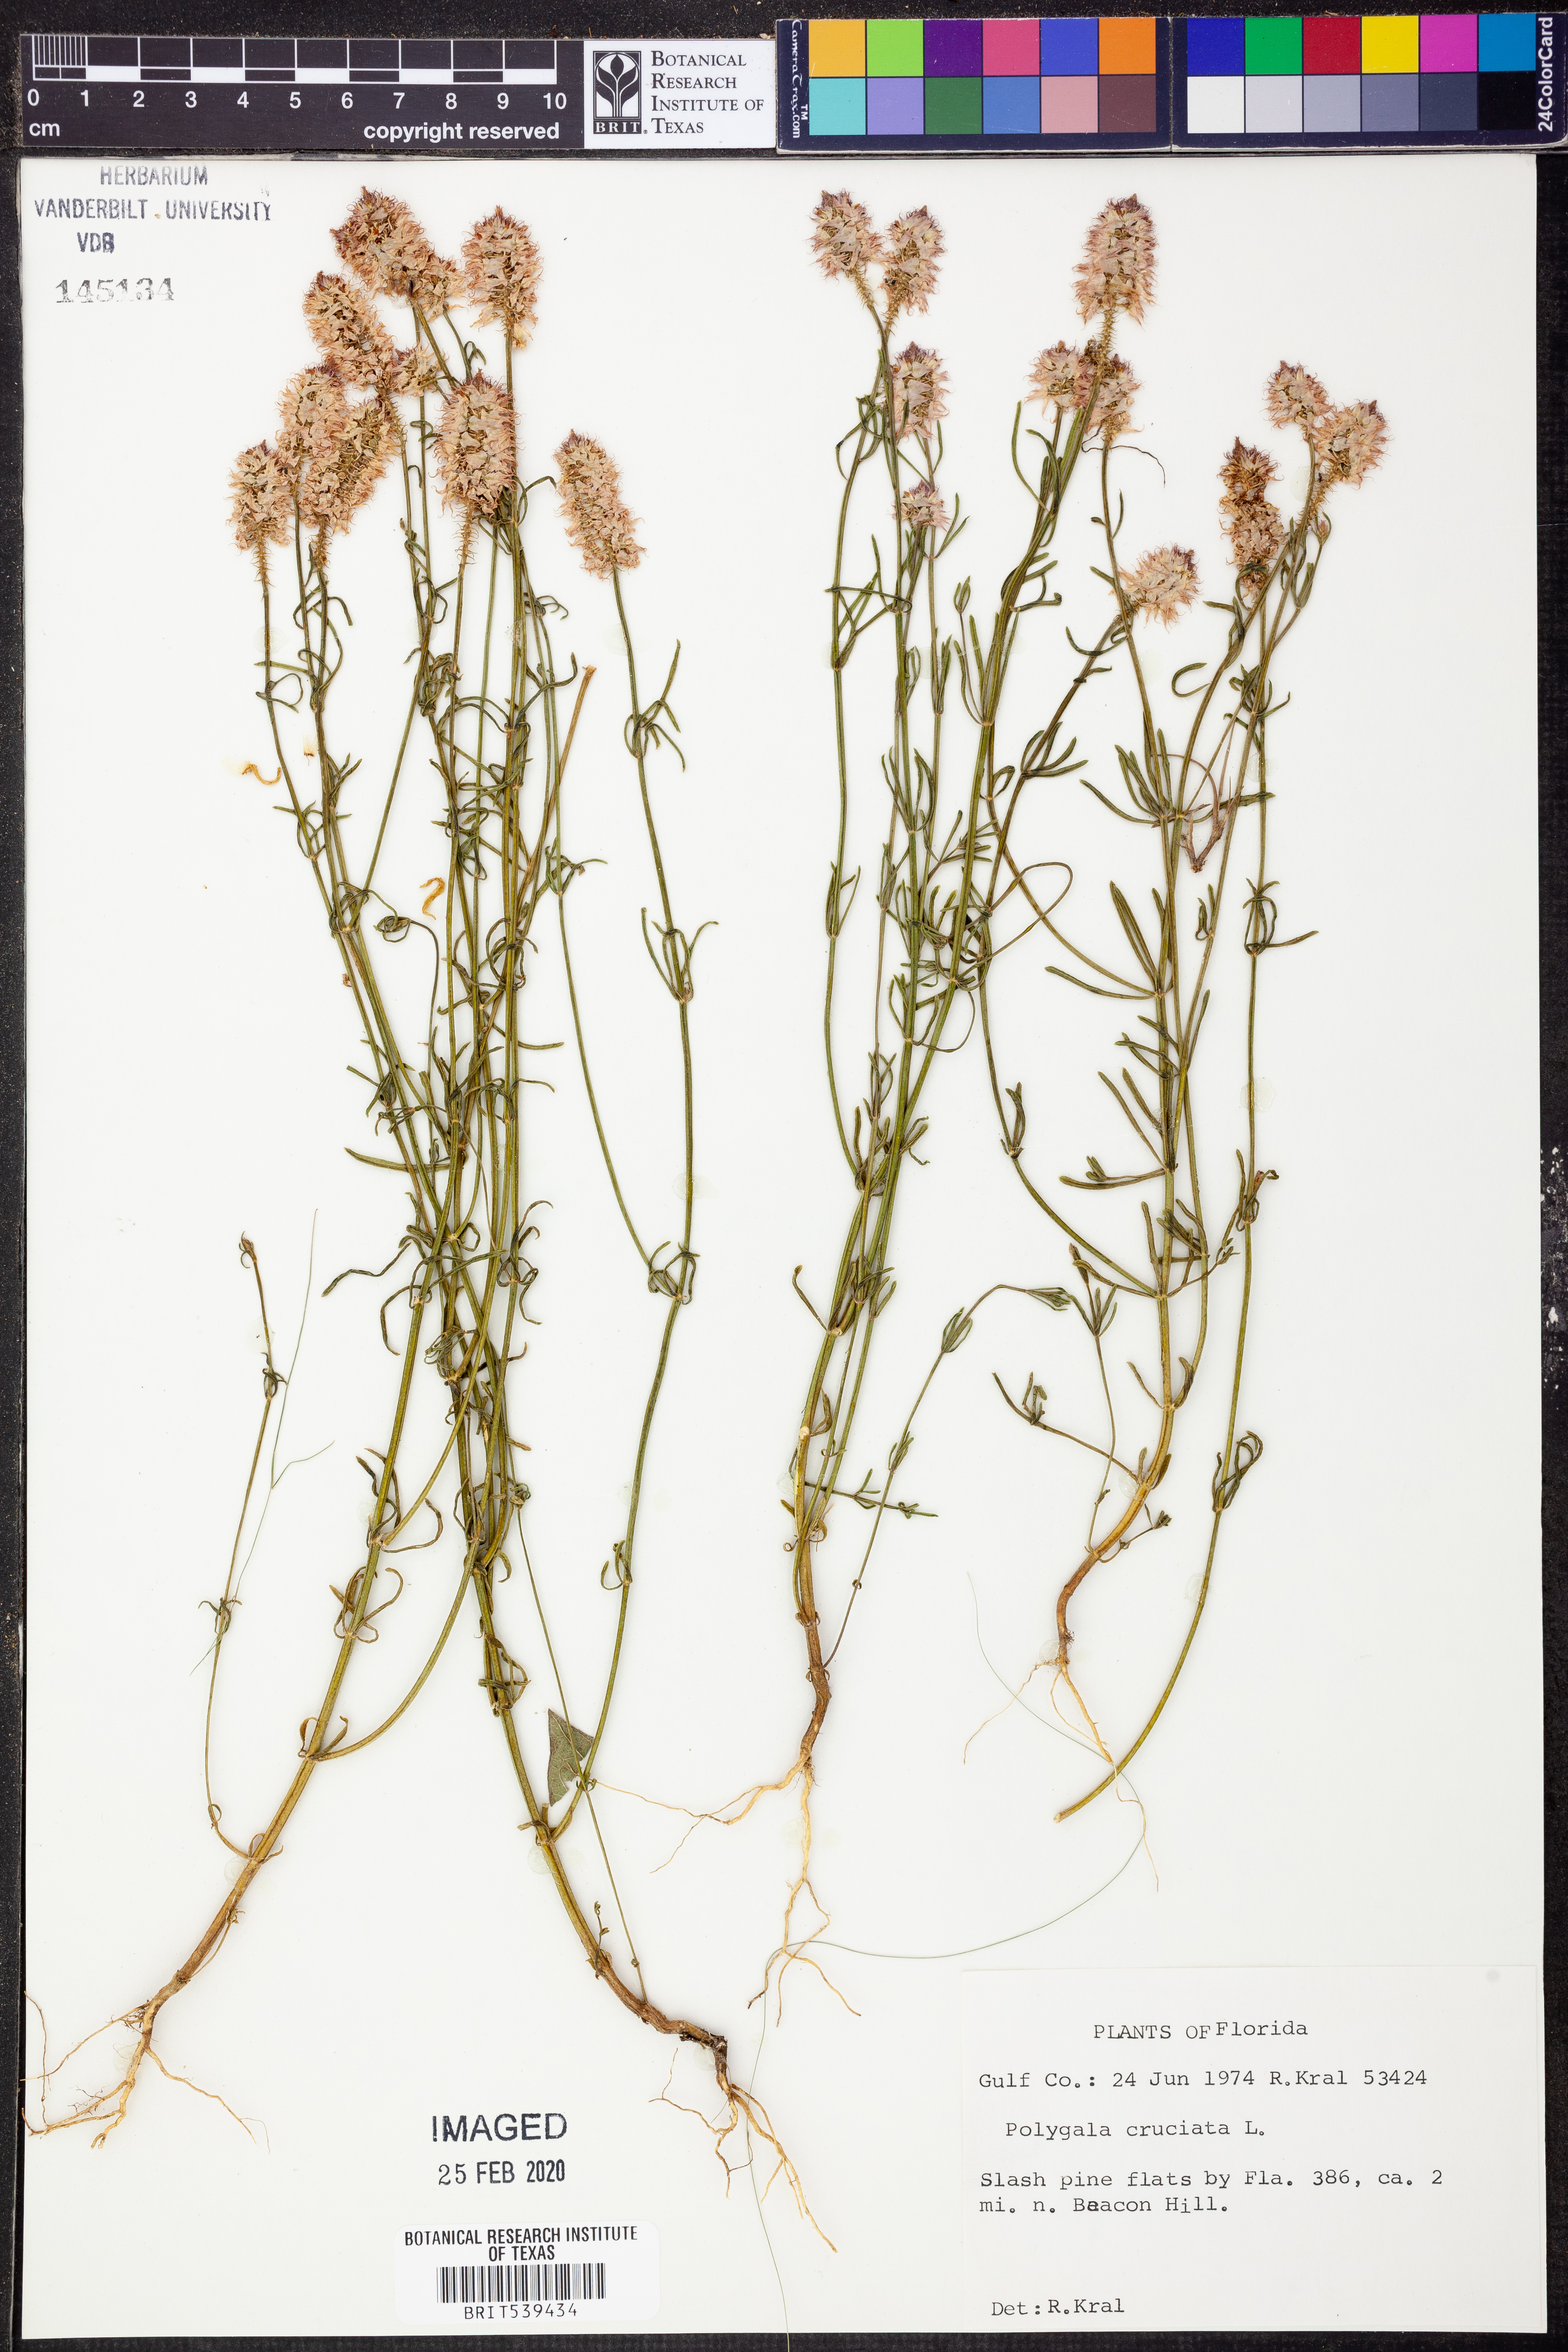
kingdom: Plantae
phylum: Tracheophyta
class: Magnoliopsida
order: Fabales
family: Polygalaceae
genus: Polygala
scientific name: Polygala cruciata
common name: Drumheads
